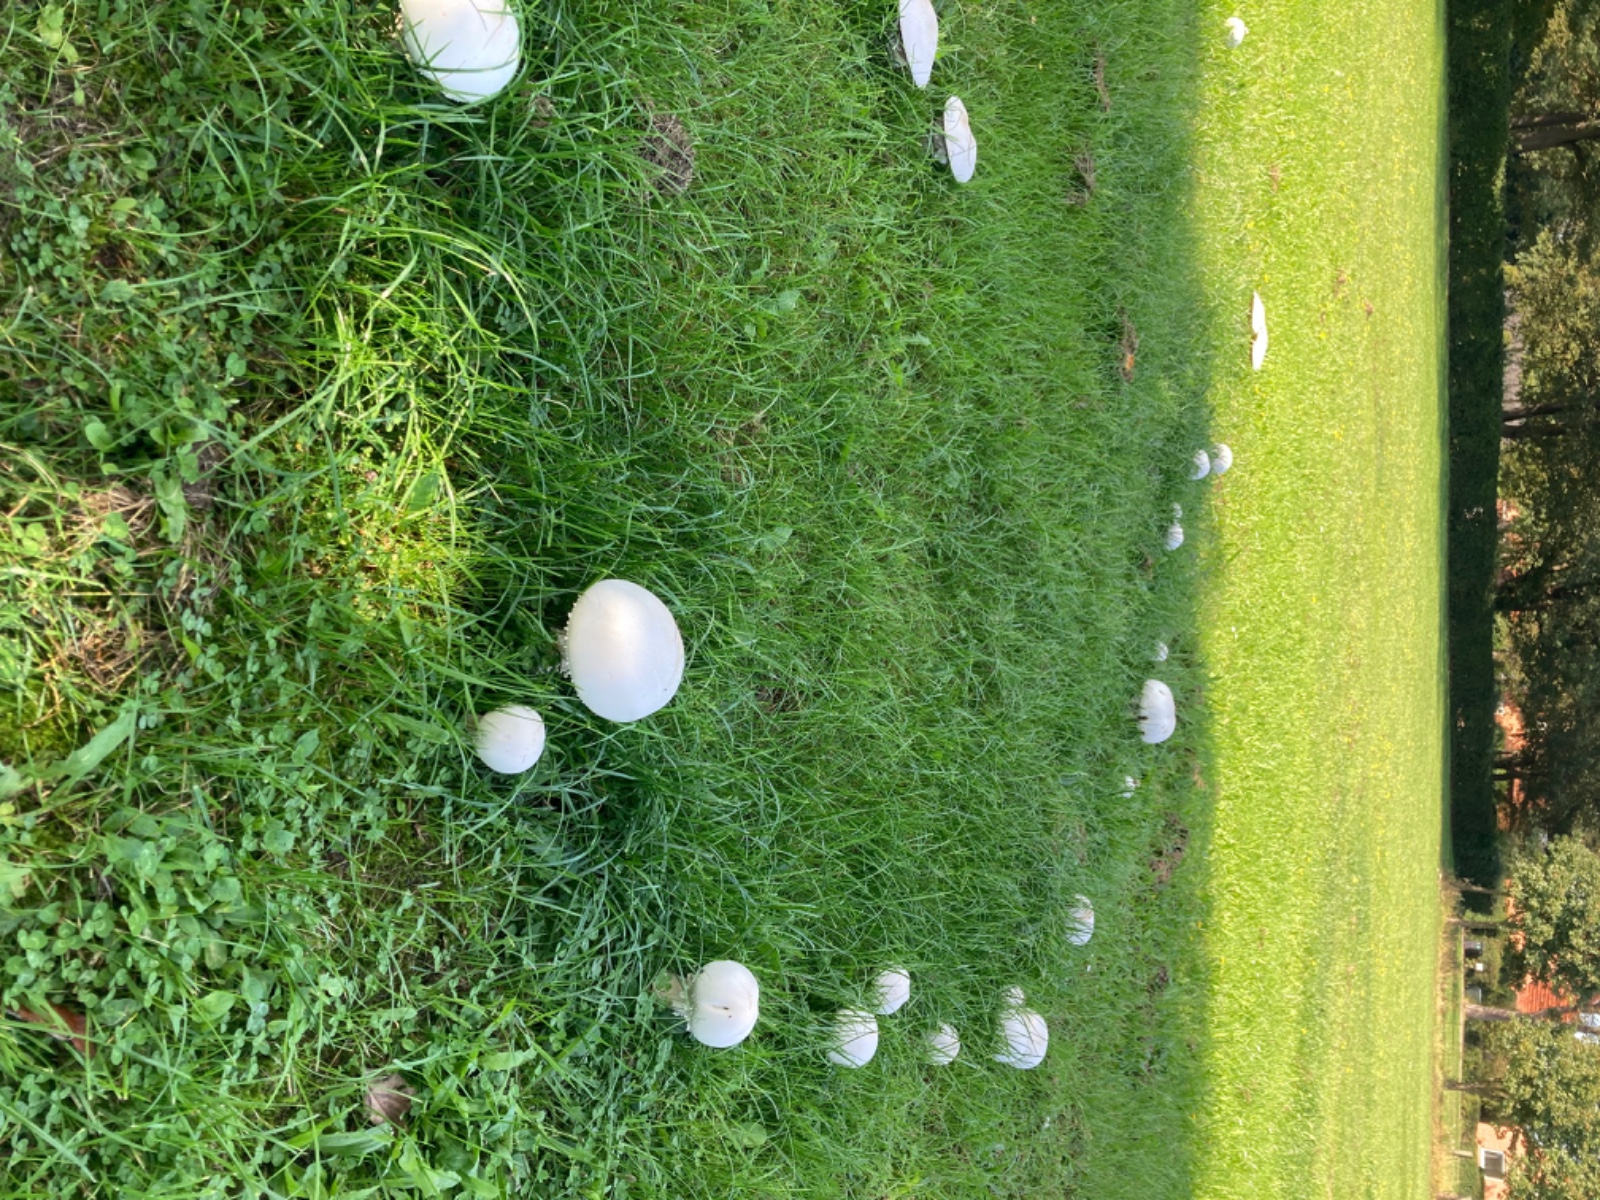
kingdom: Fungi
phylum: Basidiomycota
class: Agaricomycetes
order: Agaricales
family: Agaricaceae
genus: Agaricus
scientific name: Agaricus crocodilinus
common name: landsby-champignon
